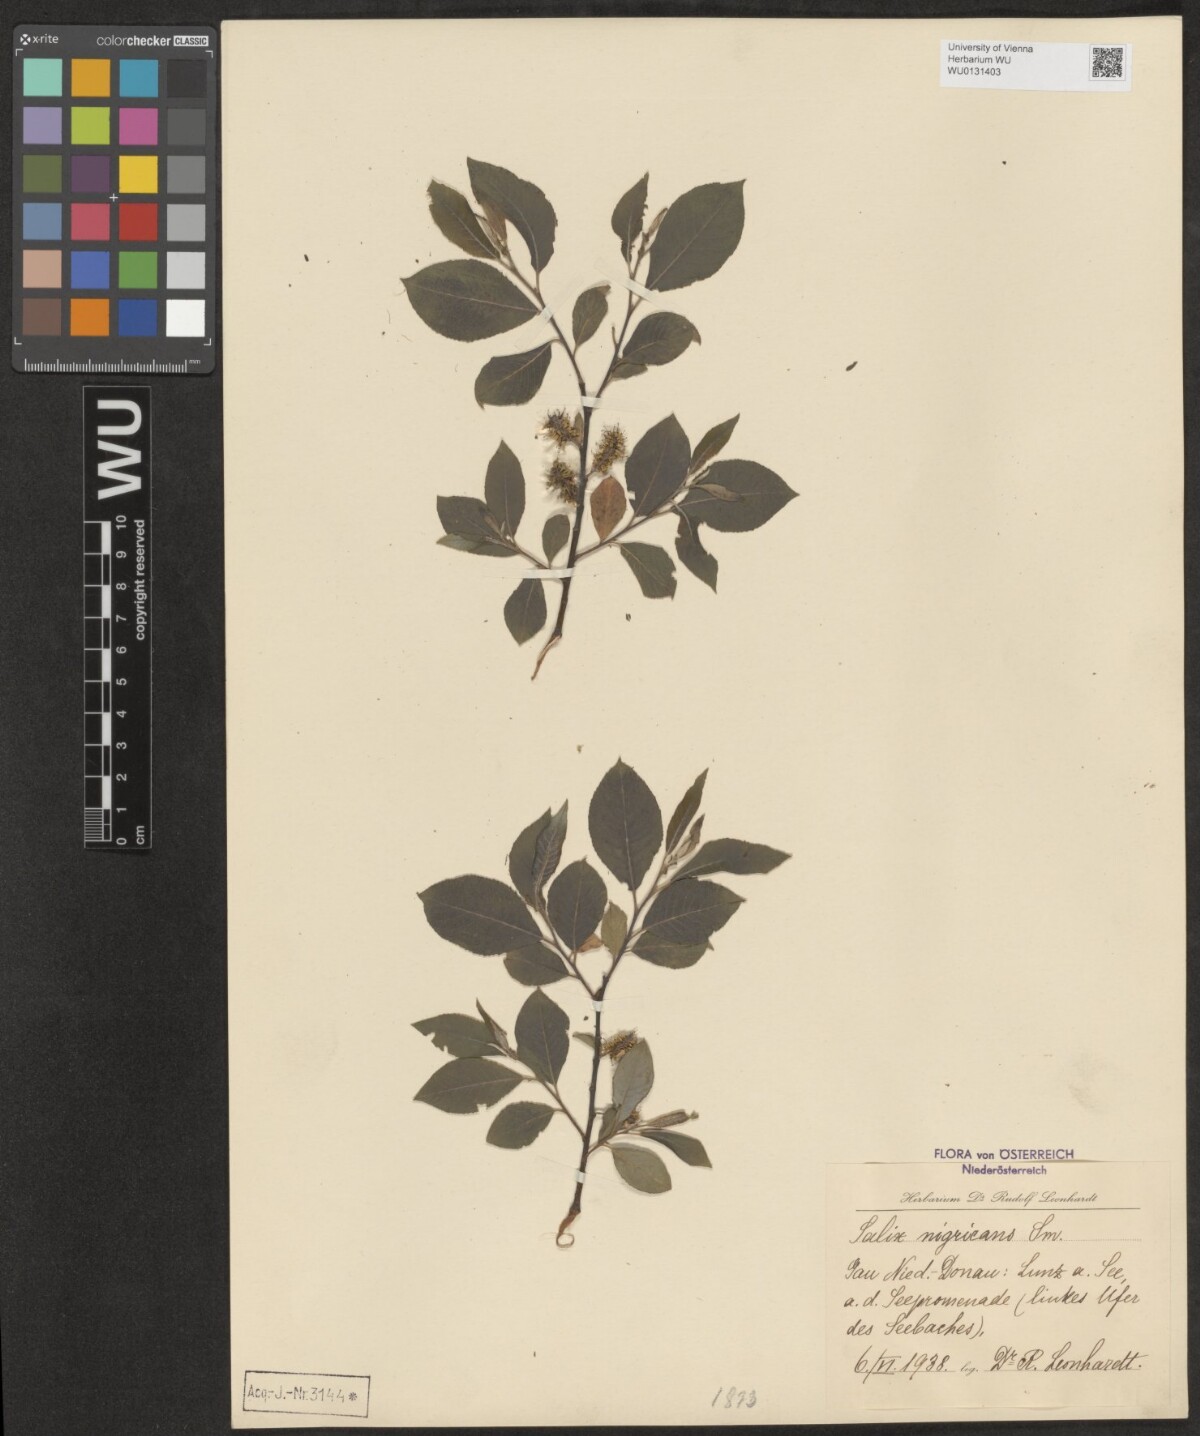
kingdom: Plantae
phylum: Tracheophyta
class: Magnoliopsida
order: Malpighiales
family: Salicaceae
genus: Salix
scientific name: Salix myrsinifolia
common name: Dark-leaved willow
